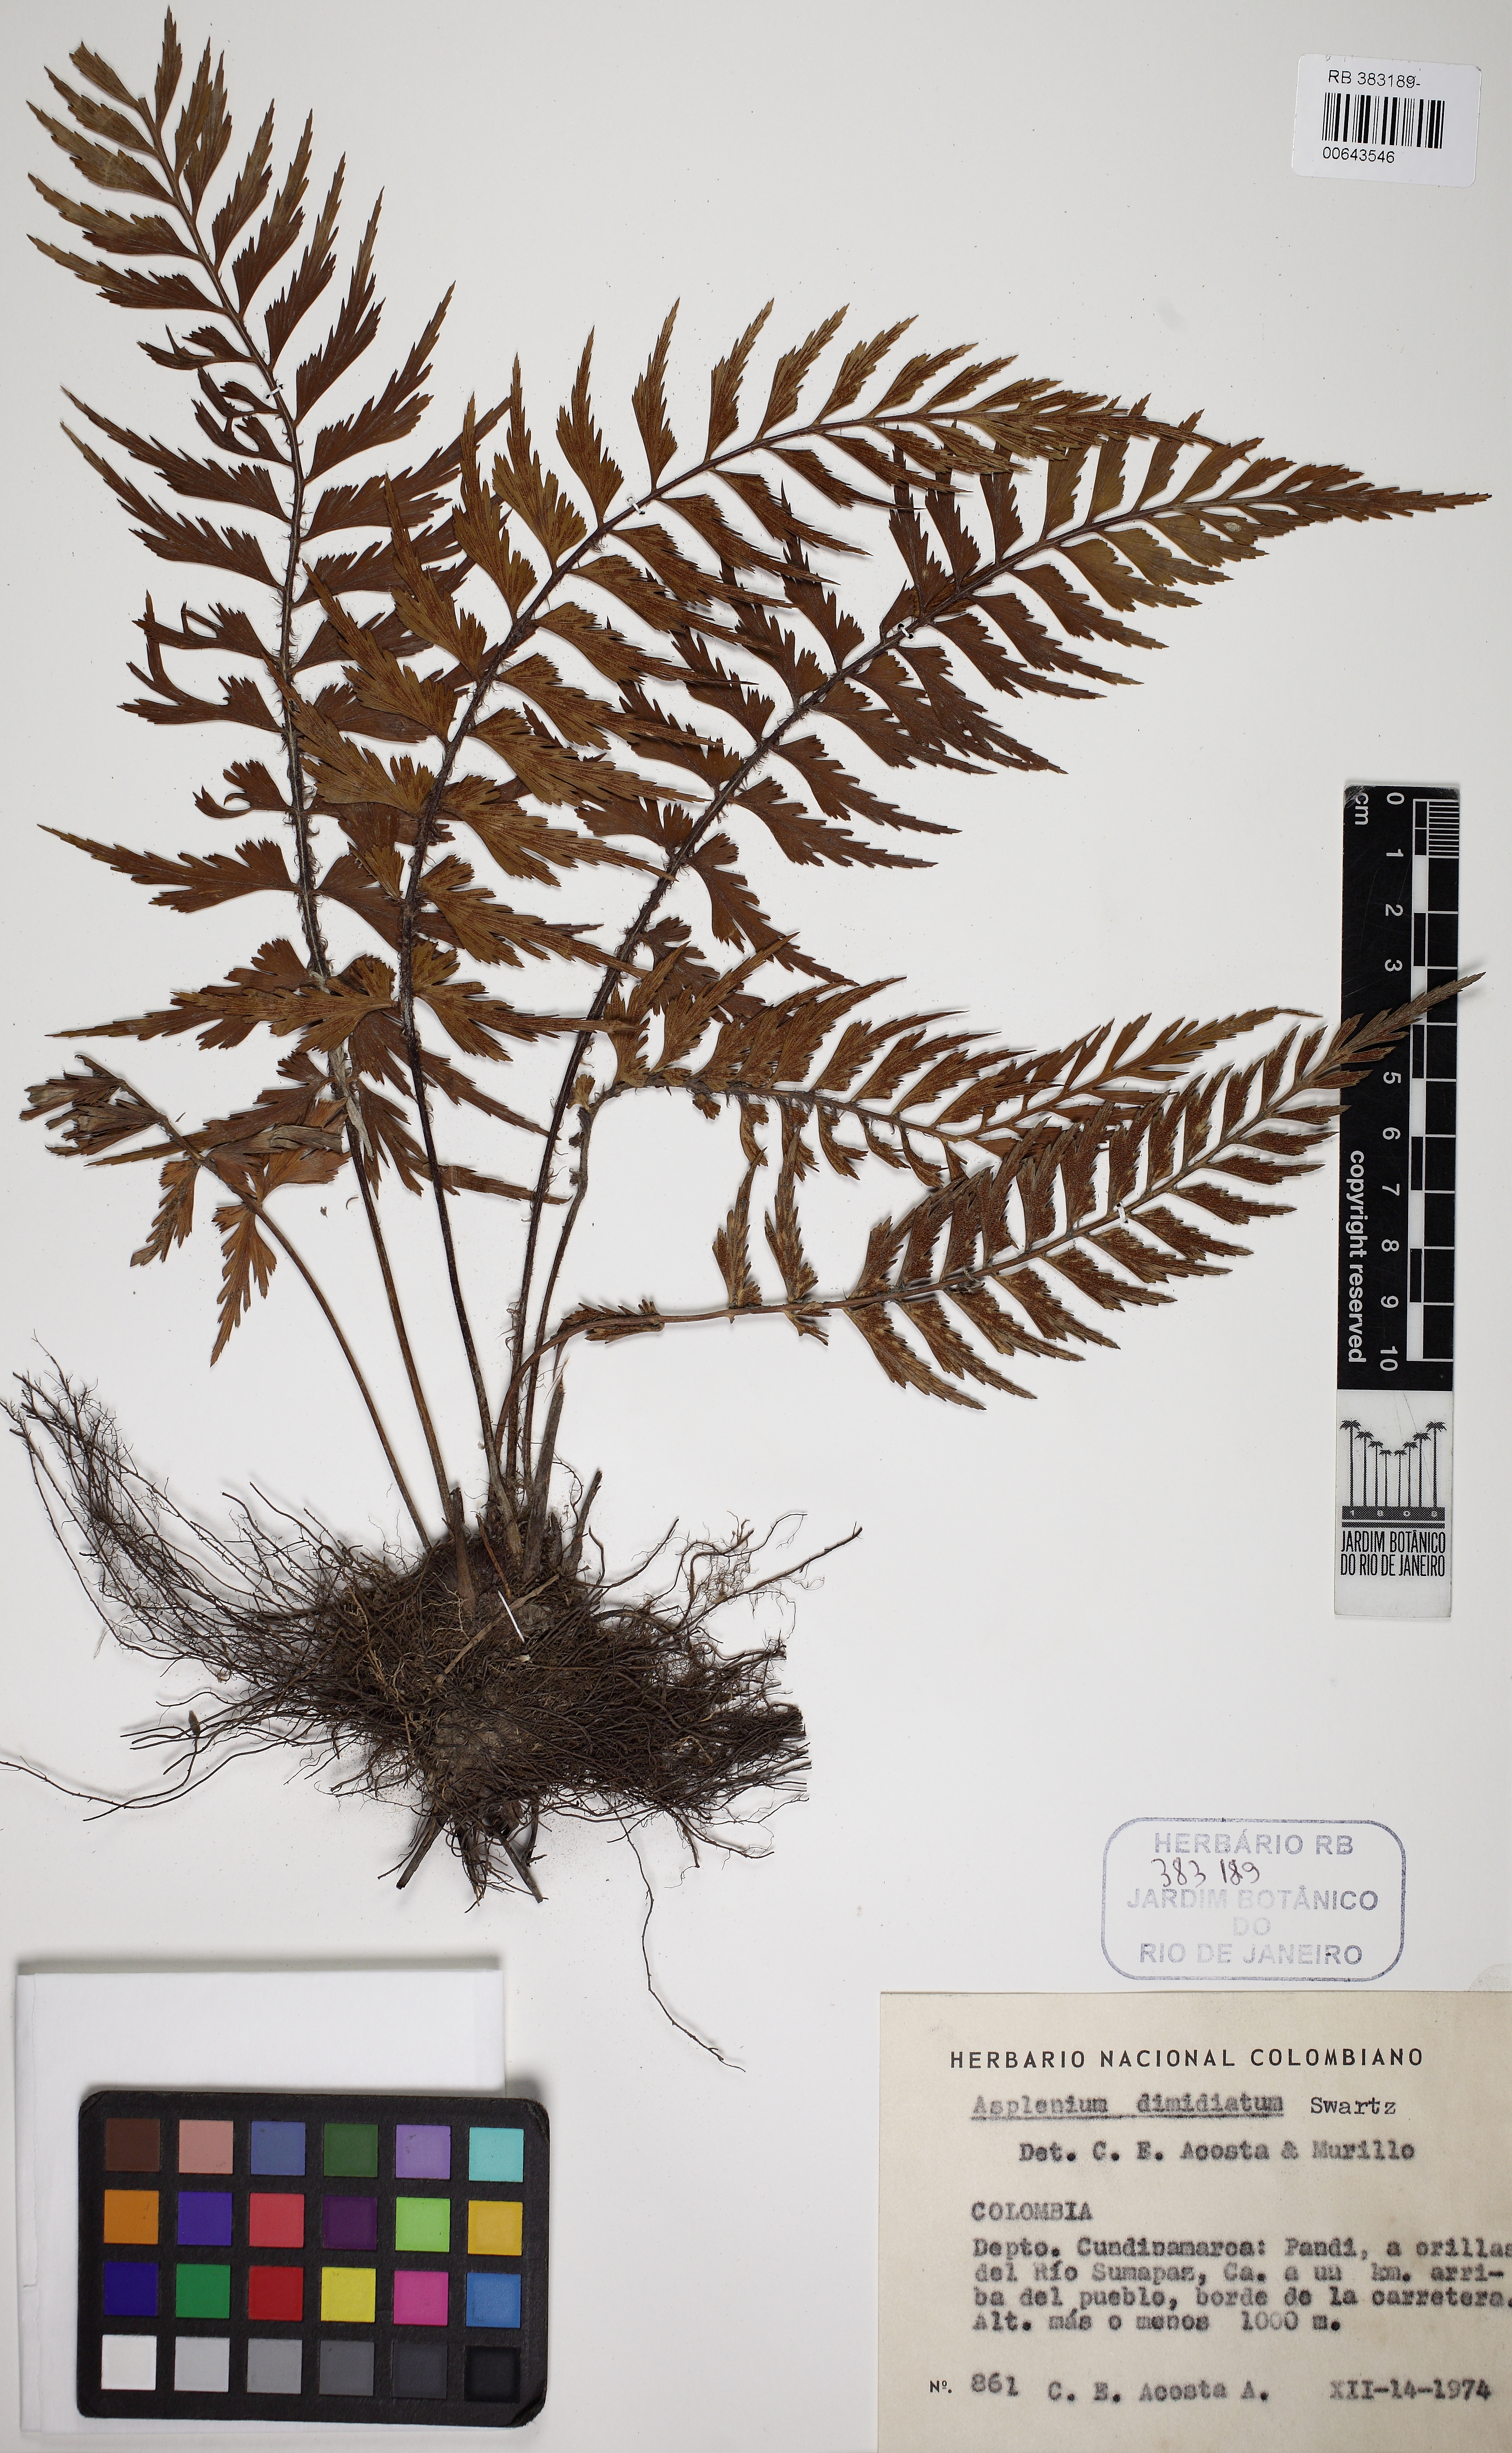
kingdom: Plantae
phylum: Tracheophyta
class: Polypodiopsida
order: Polypodiales
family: Aspleniaceae
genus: Asplenium
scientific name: Asplenium dimidiatum
